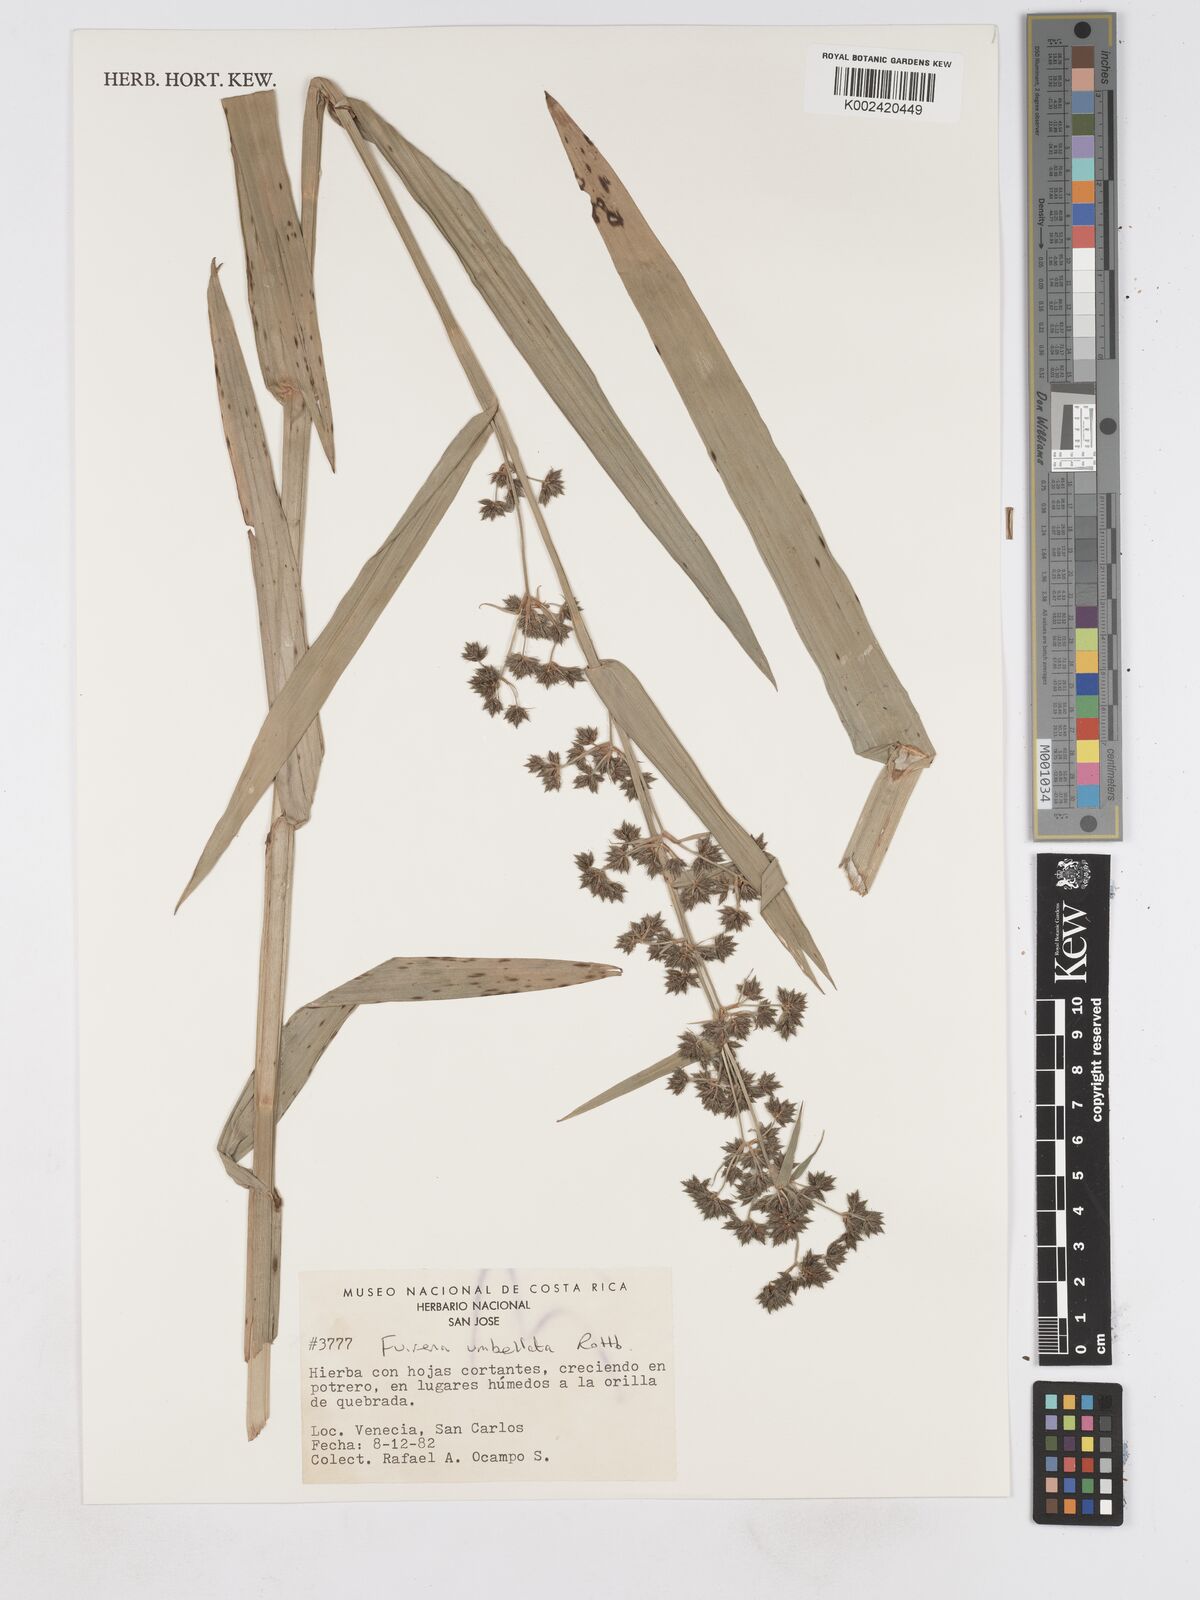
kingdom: Plantae
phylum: Tracheophyta
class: Liliopsida
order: Poales
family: Cyperaceae
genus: Fuirena
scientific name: Fuirena umbellata
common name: Yefen
